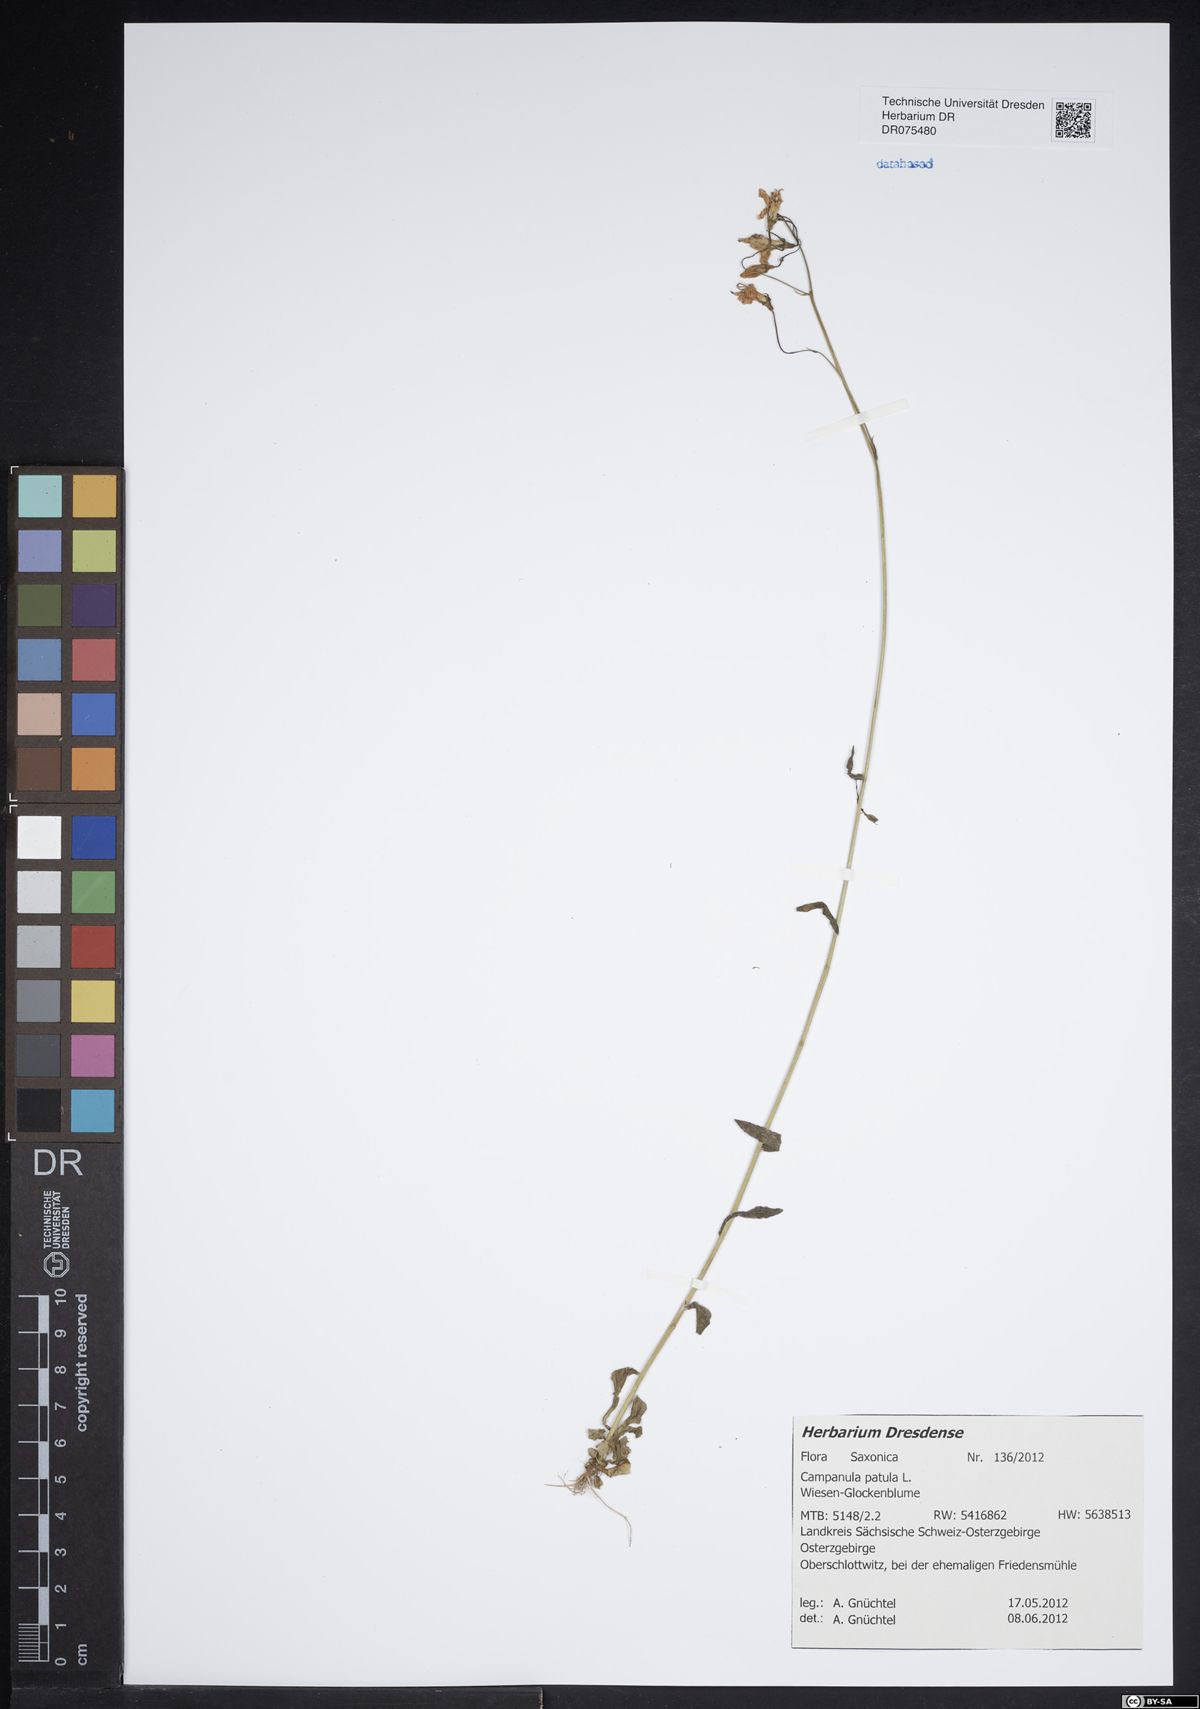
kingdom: Plantae
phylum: Tracheophyta
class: Magnoliopsida
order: Asterales
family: Campanulaceae
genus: Campanula
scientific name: Campanula patula
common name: Spreading bellflower
